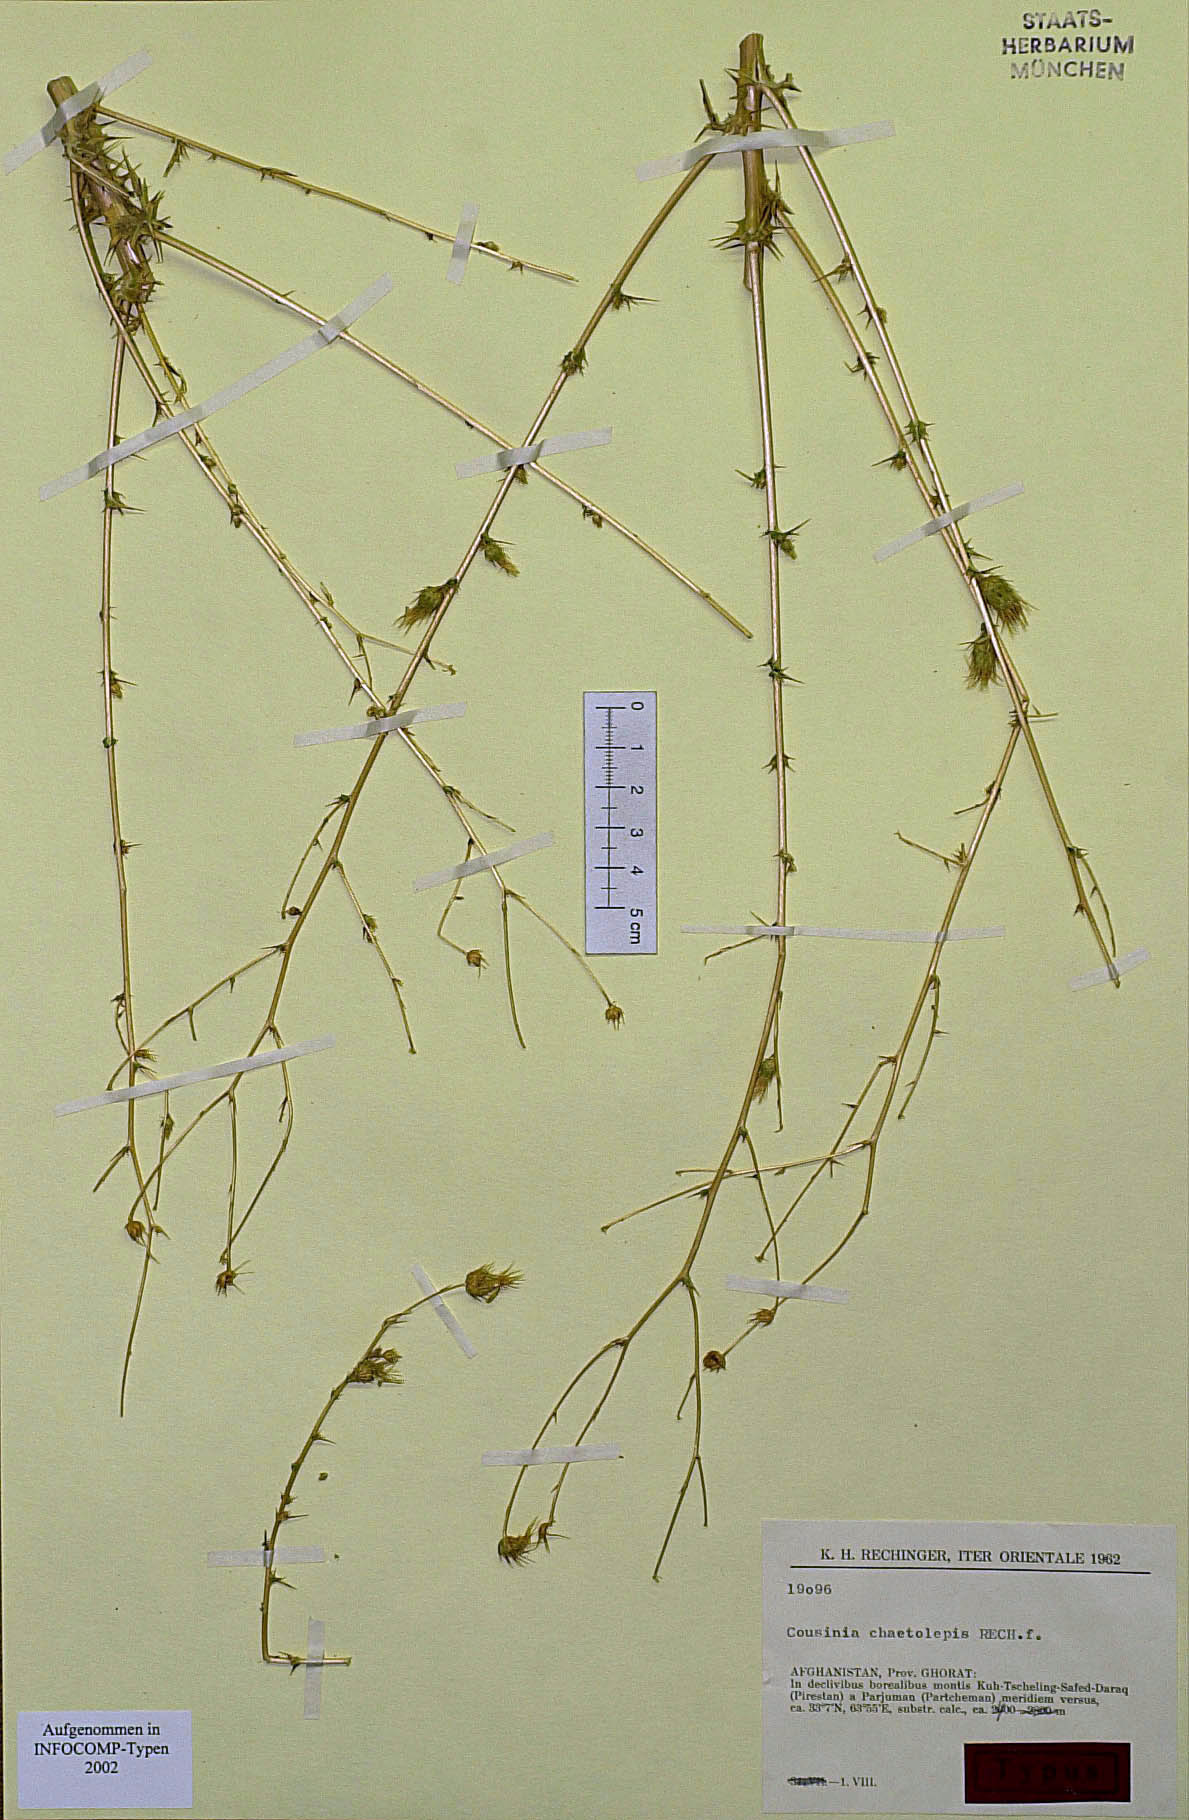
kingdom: Plantae
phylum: Tracheophyta
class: Magnoliopsida
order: Asterales
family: Asteraceae
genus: Cousinia
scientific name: Cousinia chaetolepis
